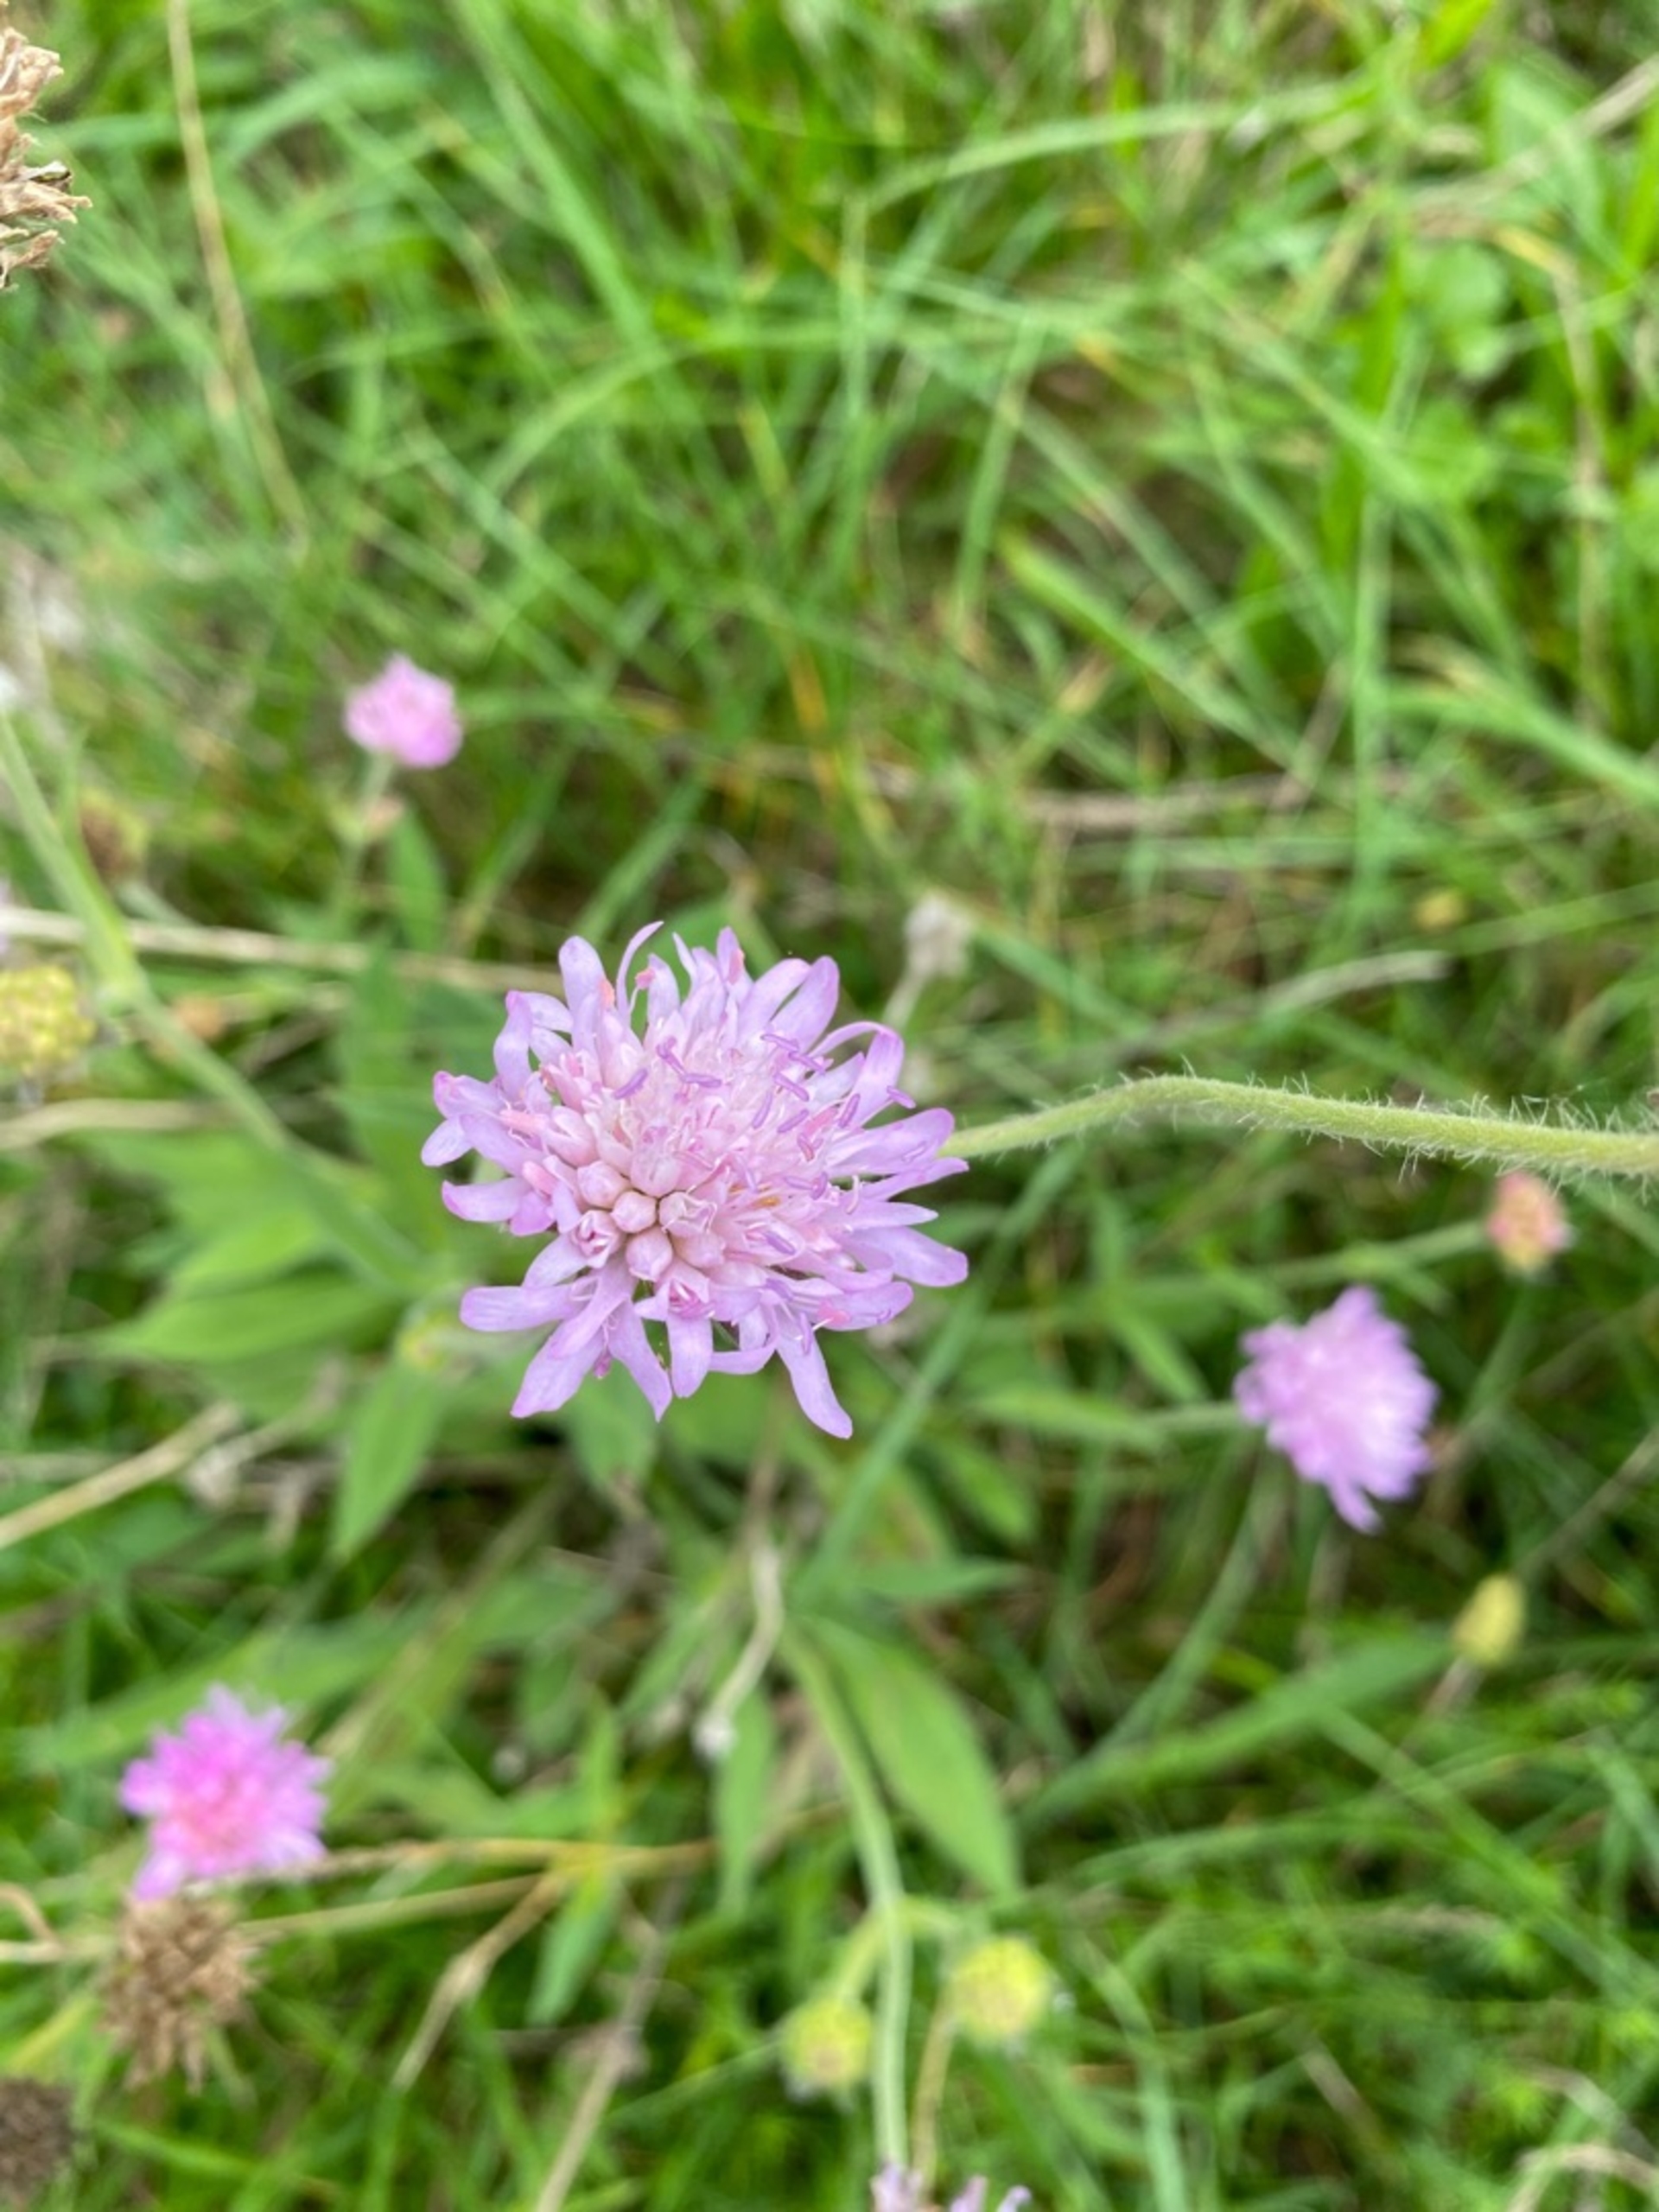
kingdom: Plantae
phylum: Tracheophyta
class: Magnoliopsida
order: Dipsacales
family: Caprifoliaceae
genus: Knautia
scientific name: Knautia arvensis
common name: Blåhat
